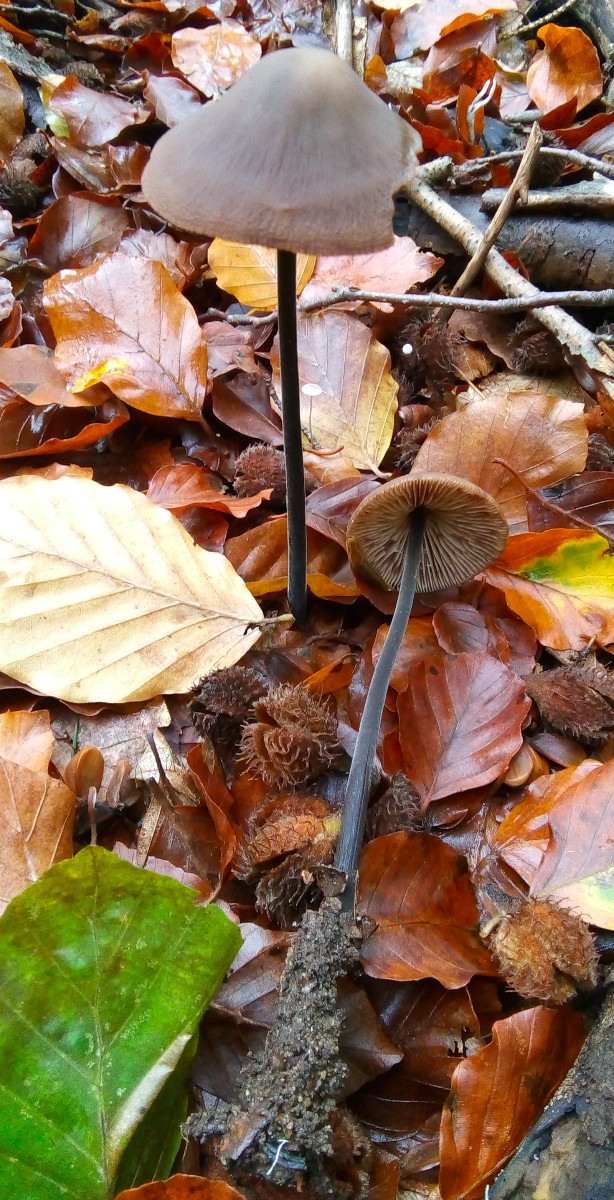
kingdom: Fungi
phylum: Basidiomycota
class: Agaricomycetes
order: Agaricales
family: Omphalotaceae
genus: Mycetinis
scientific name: Mycetinis alliaceus
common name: stor løghat
